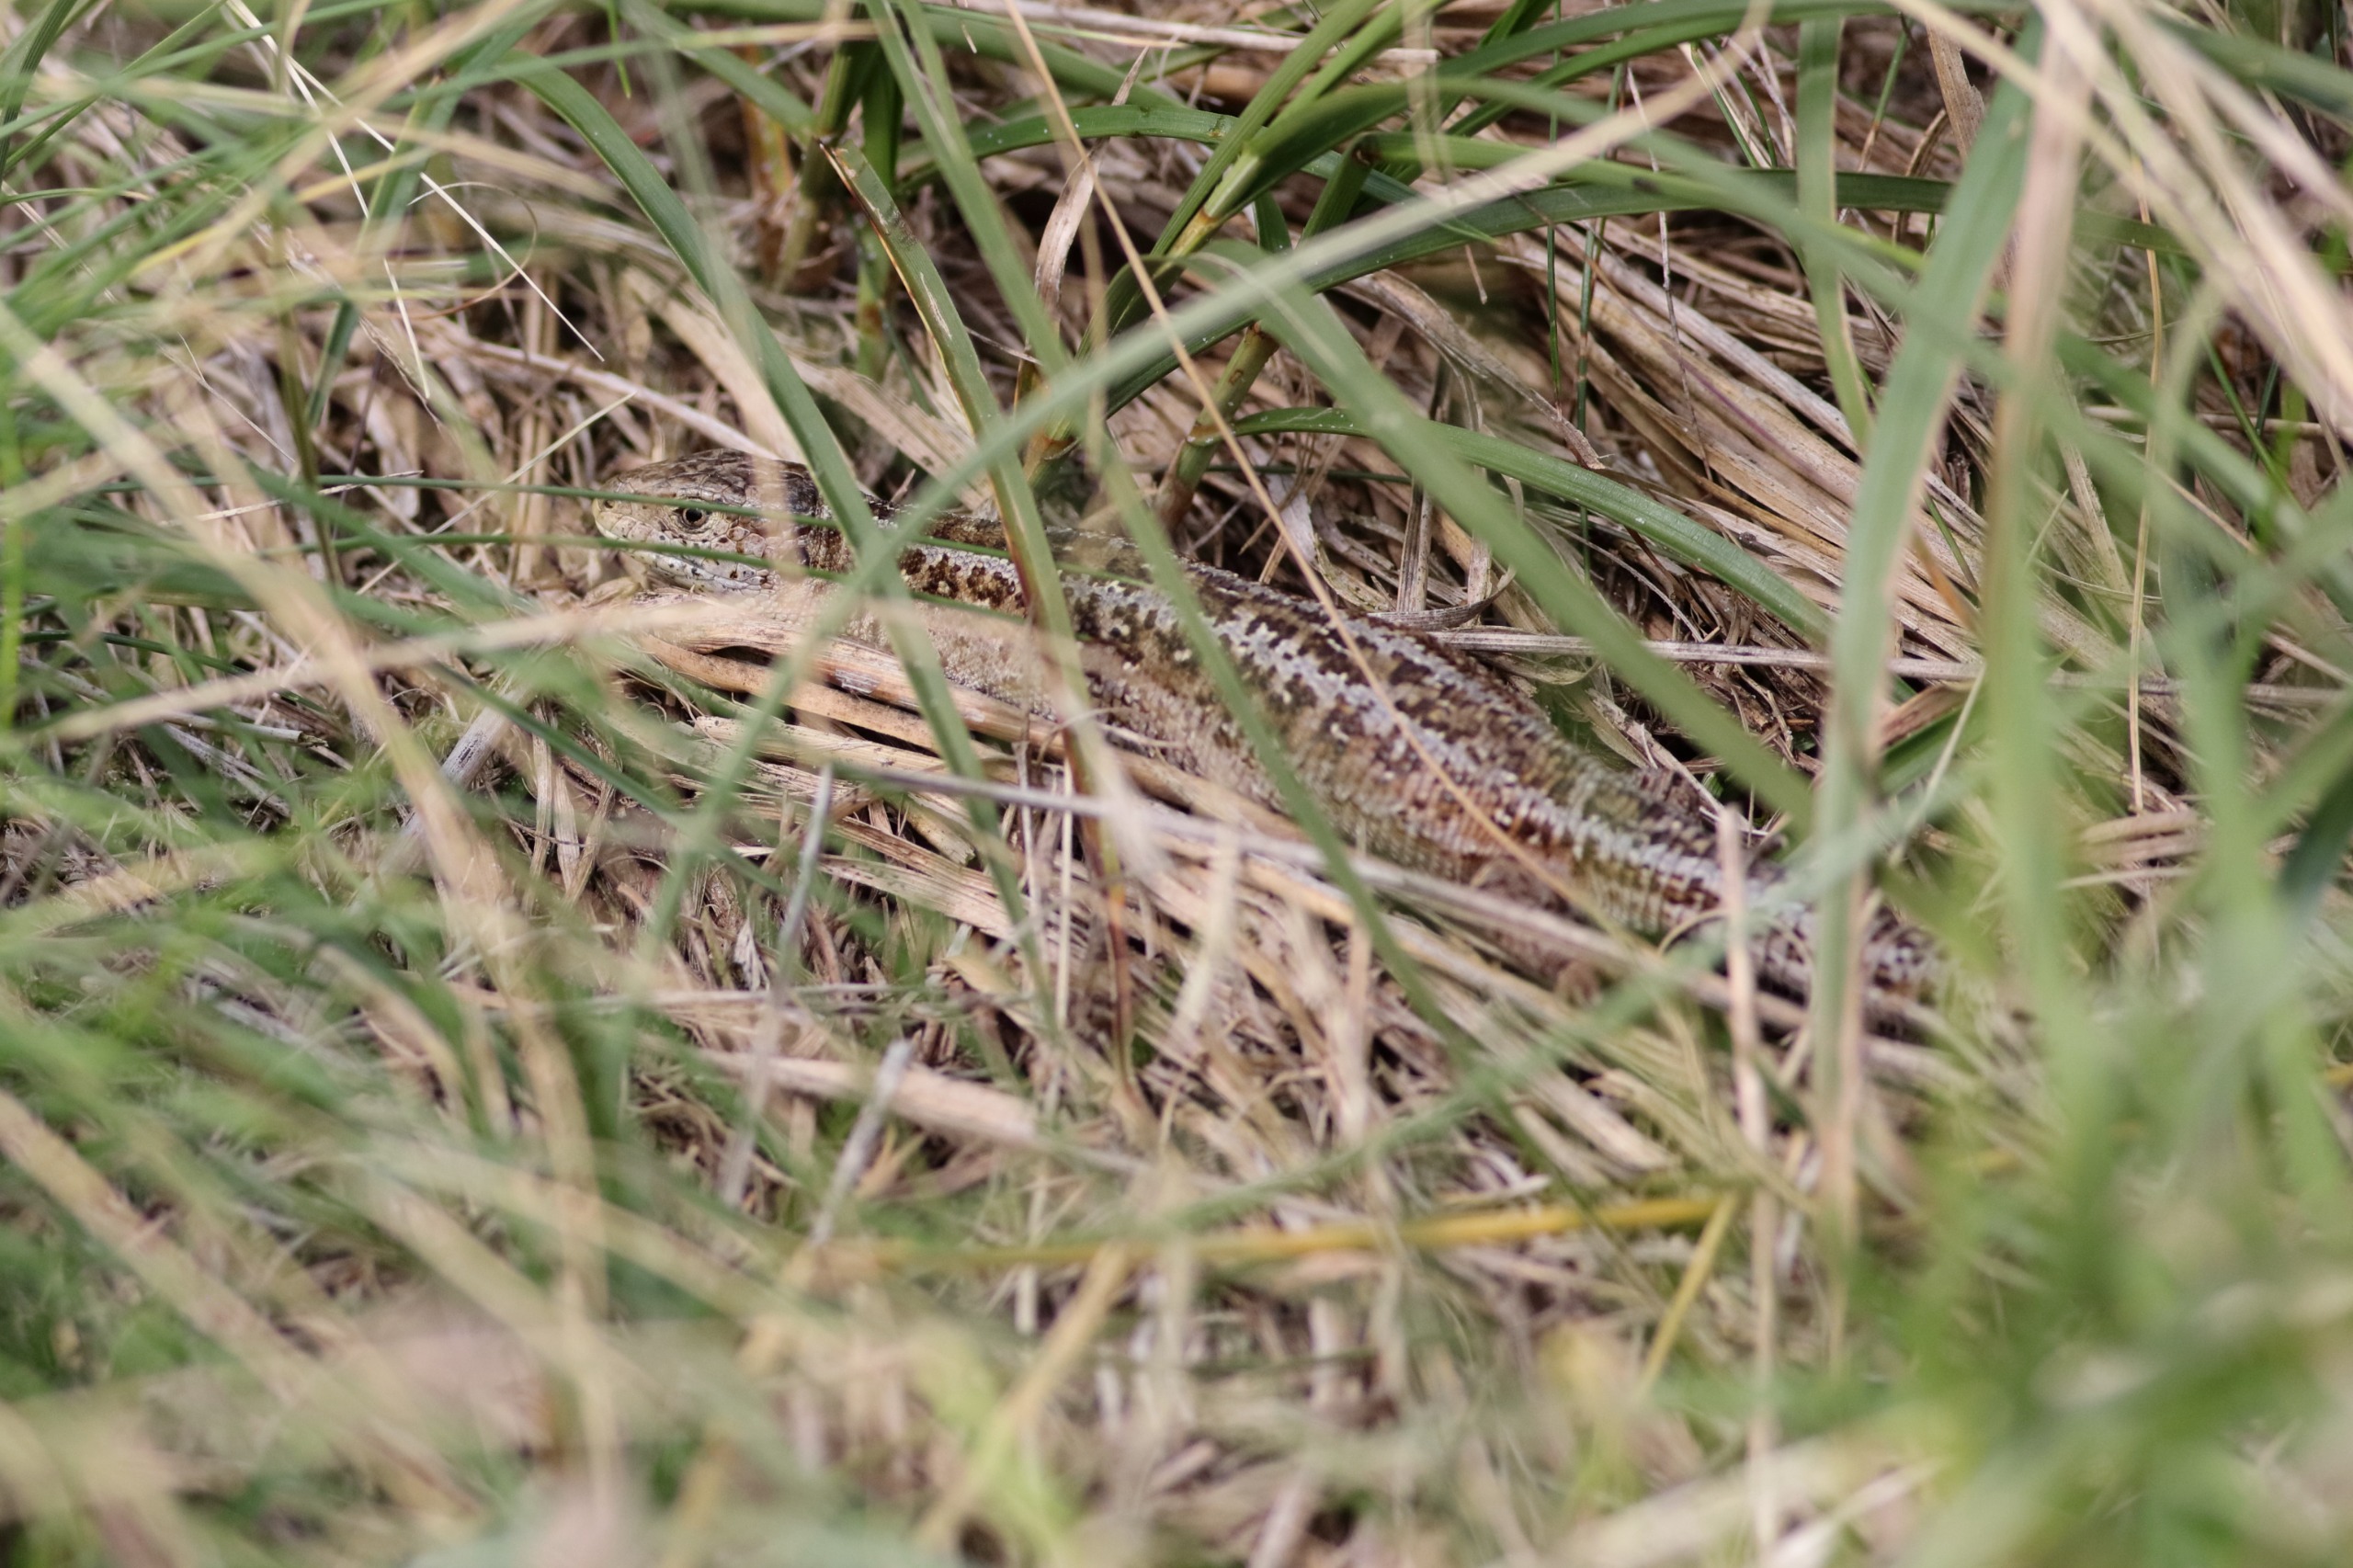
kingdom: Animalia
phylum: Chordata
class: Squamata
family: Lacertidae
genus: Lacerta
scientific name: Lacerta agilis
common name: Markfirben
